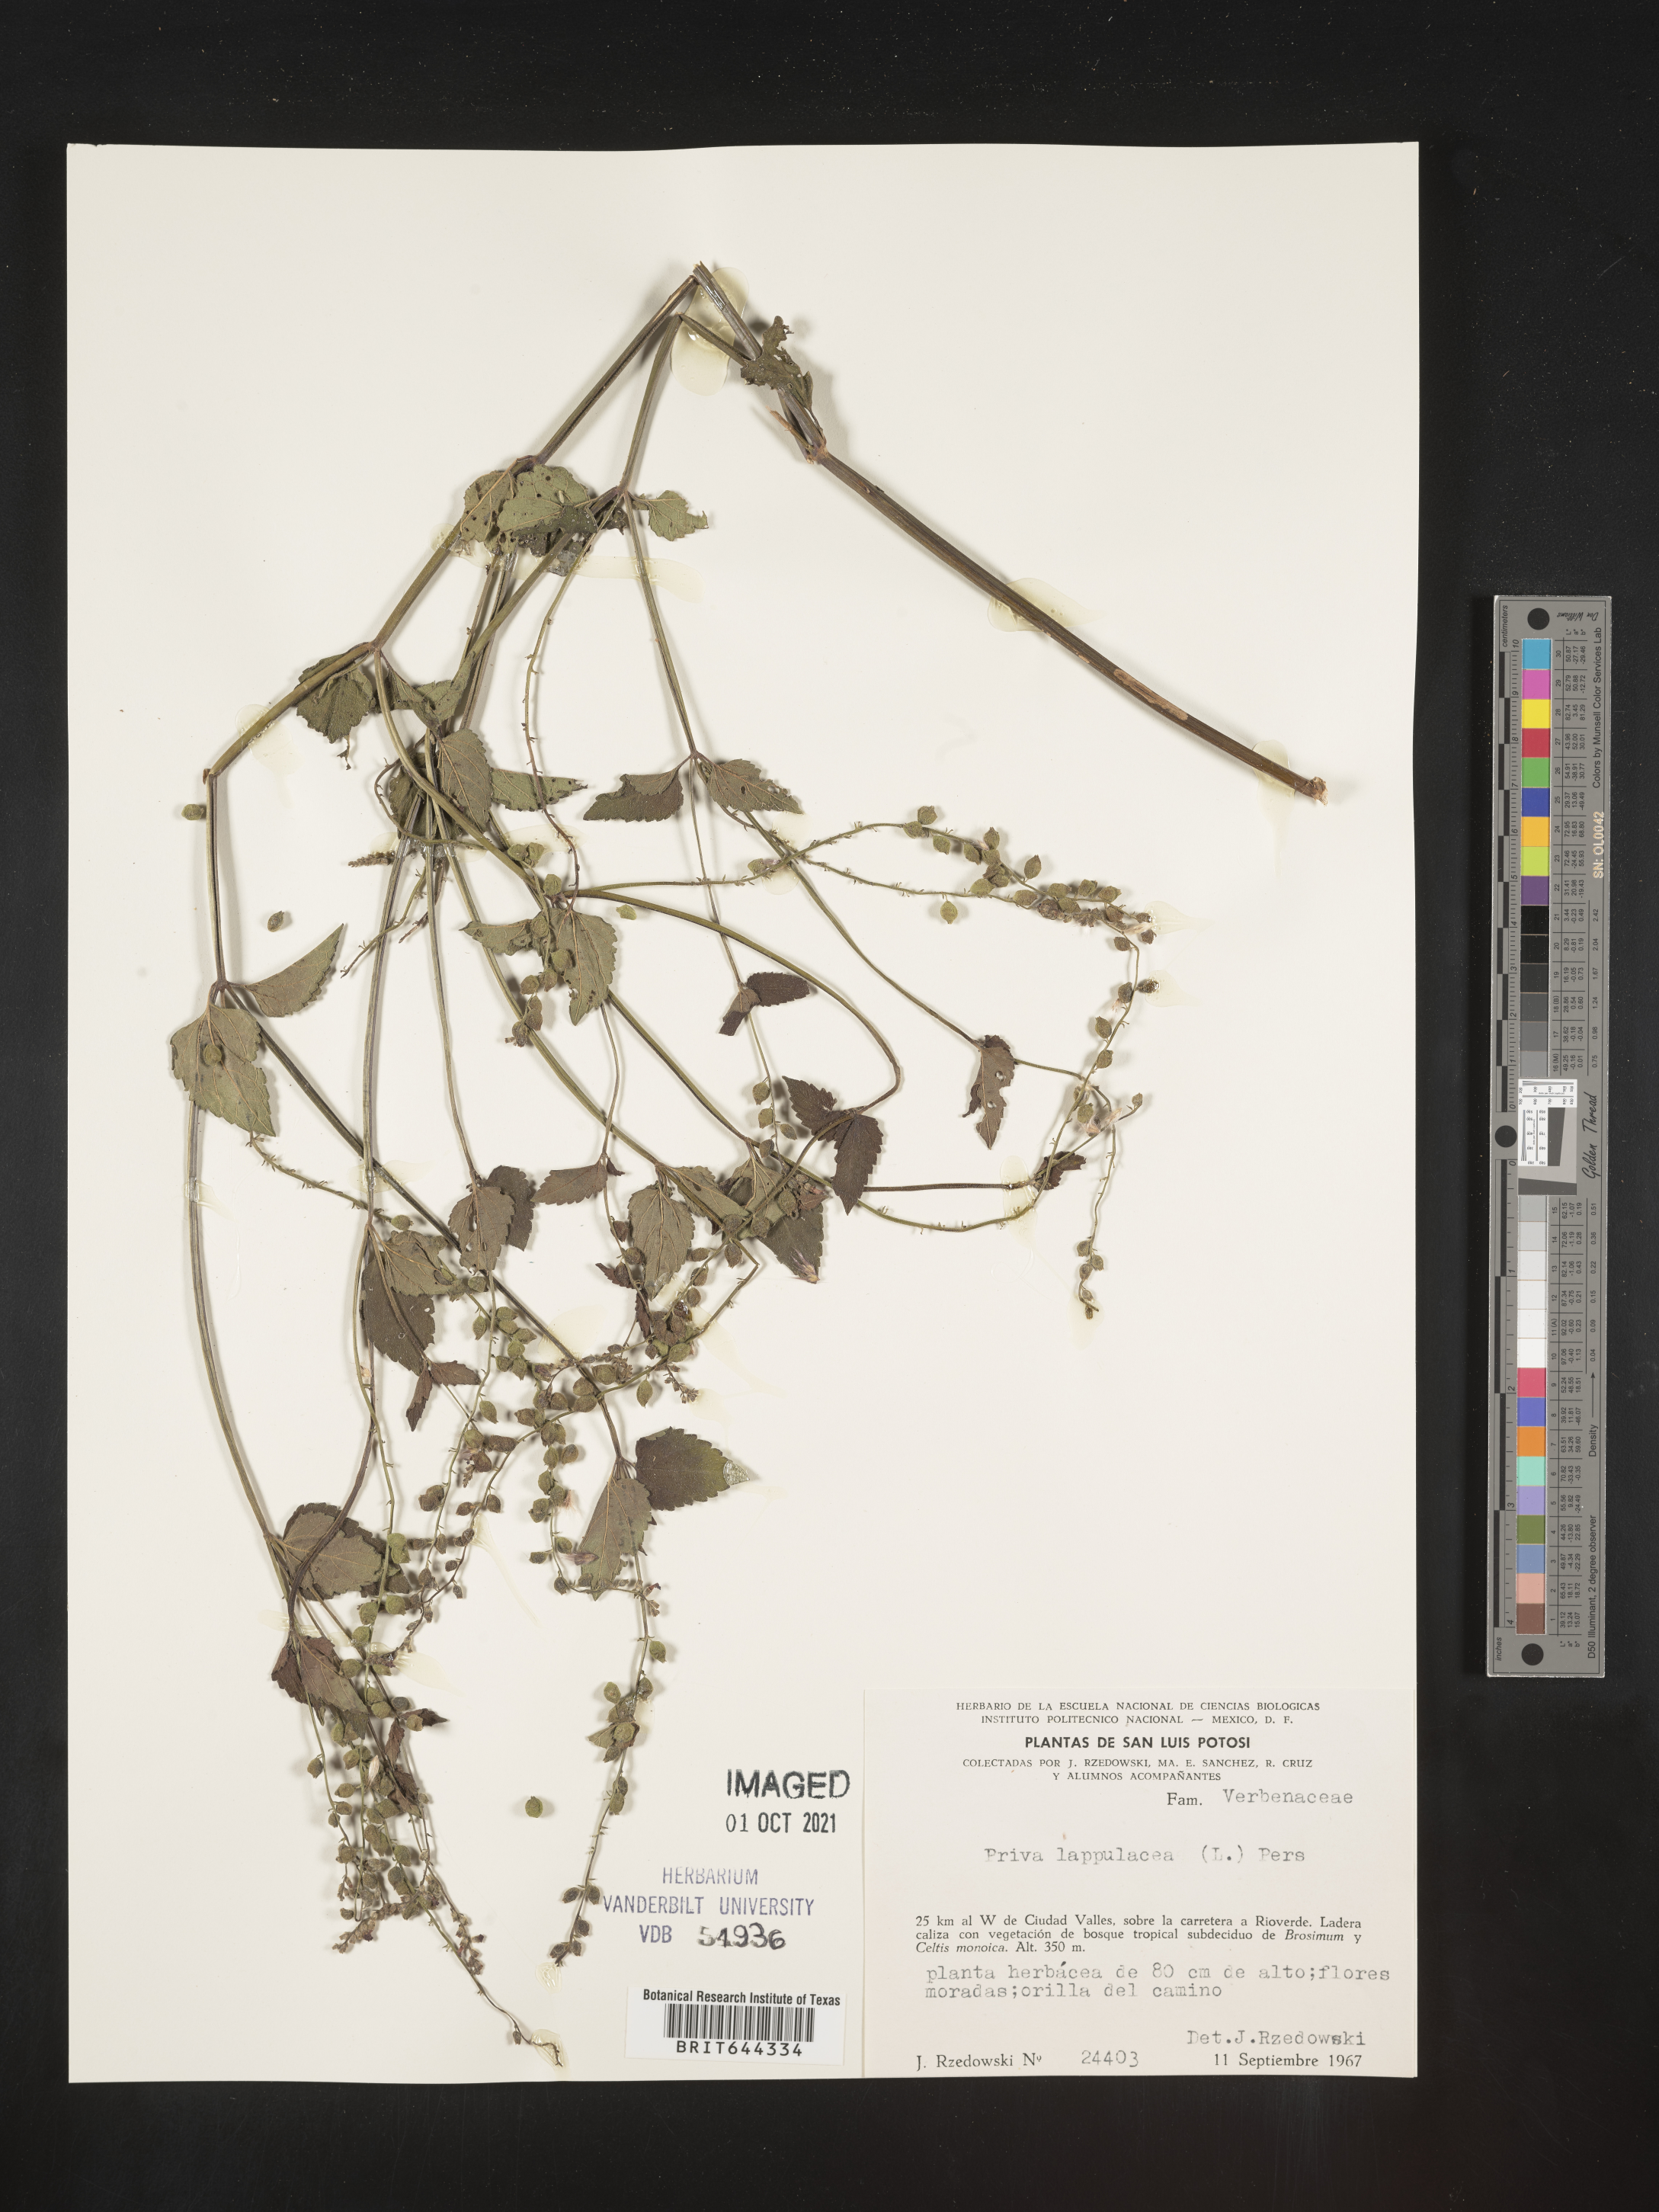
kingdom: Plantae
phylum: Tracheophyta
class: Magnoliopsida
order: Lamiales
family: Verbenaceae
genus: Priva
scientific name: Priva
